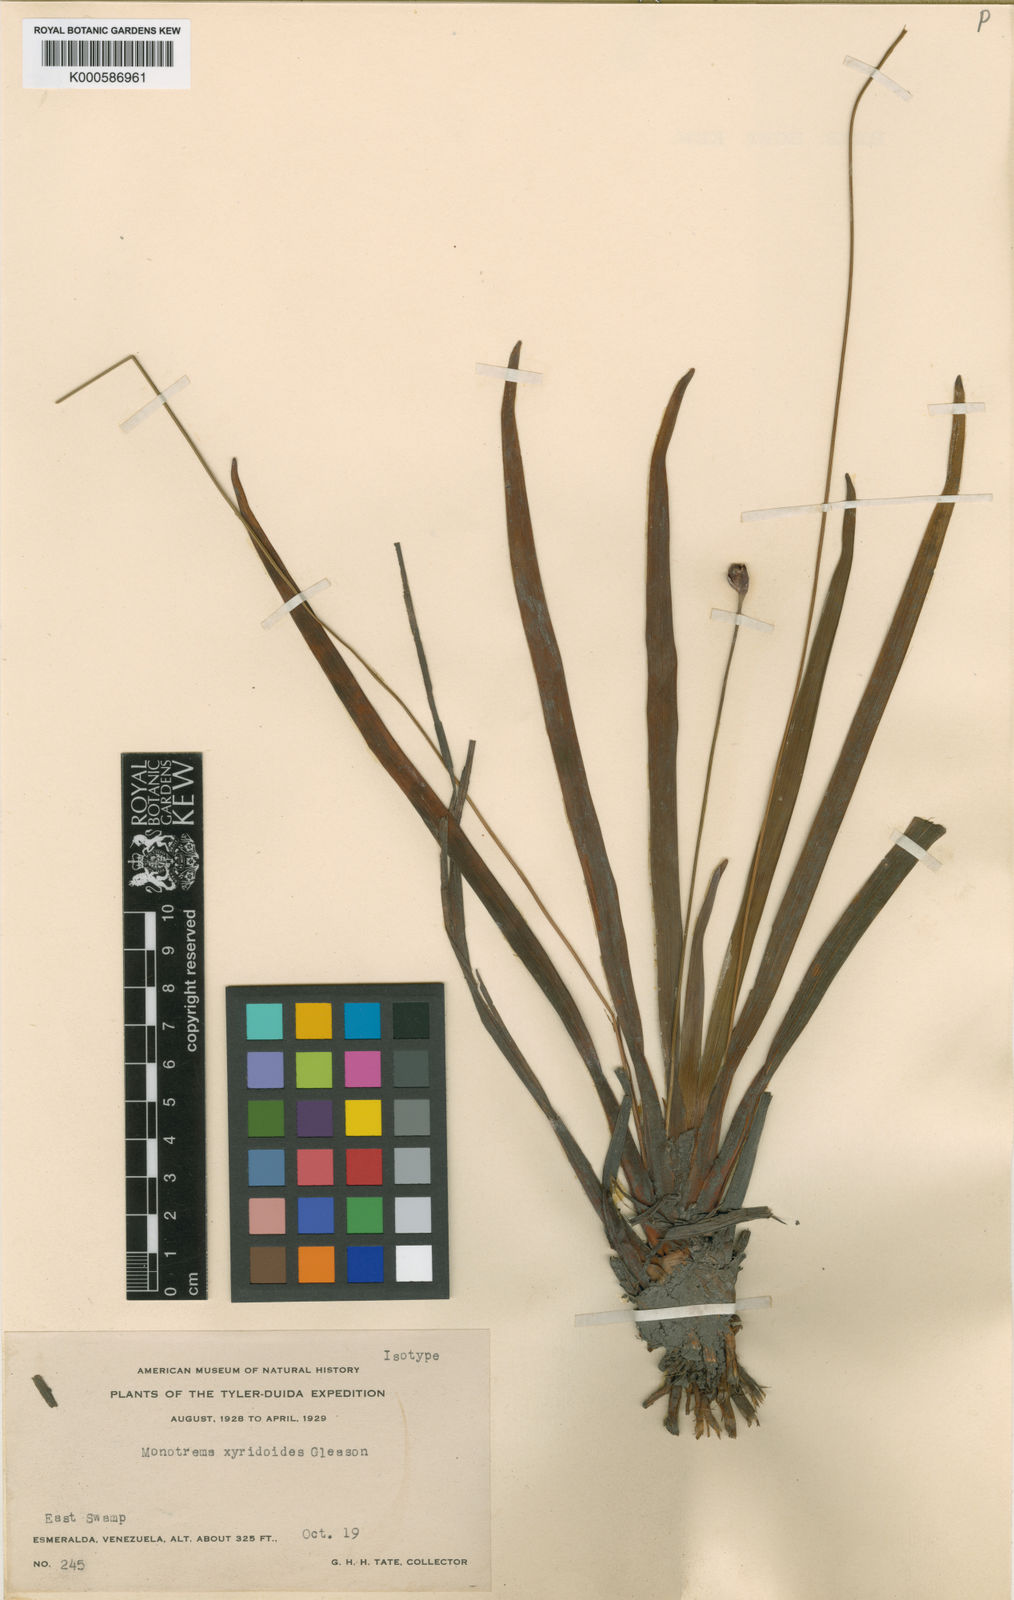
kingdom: Plantae
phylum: Tracheophyta
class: Liliopsida
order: Poales
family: Rapateaceae
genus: Monotrema
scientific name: Monotrema xyridoides
